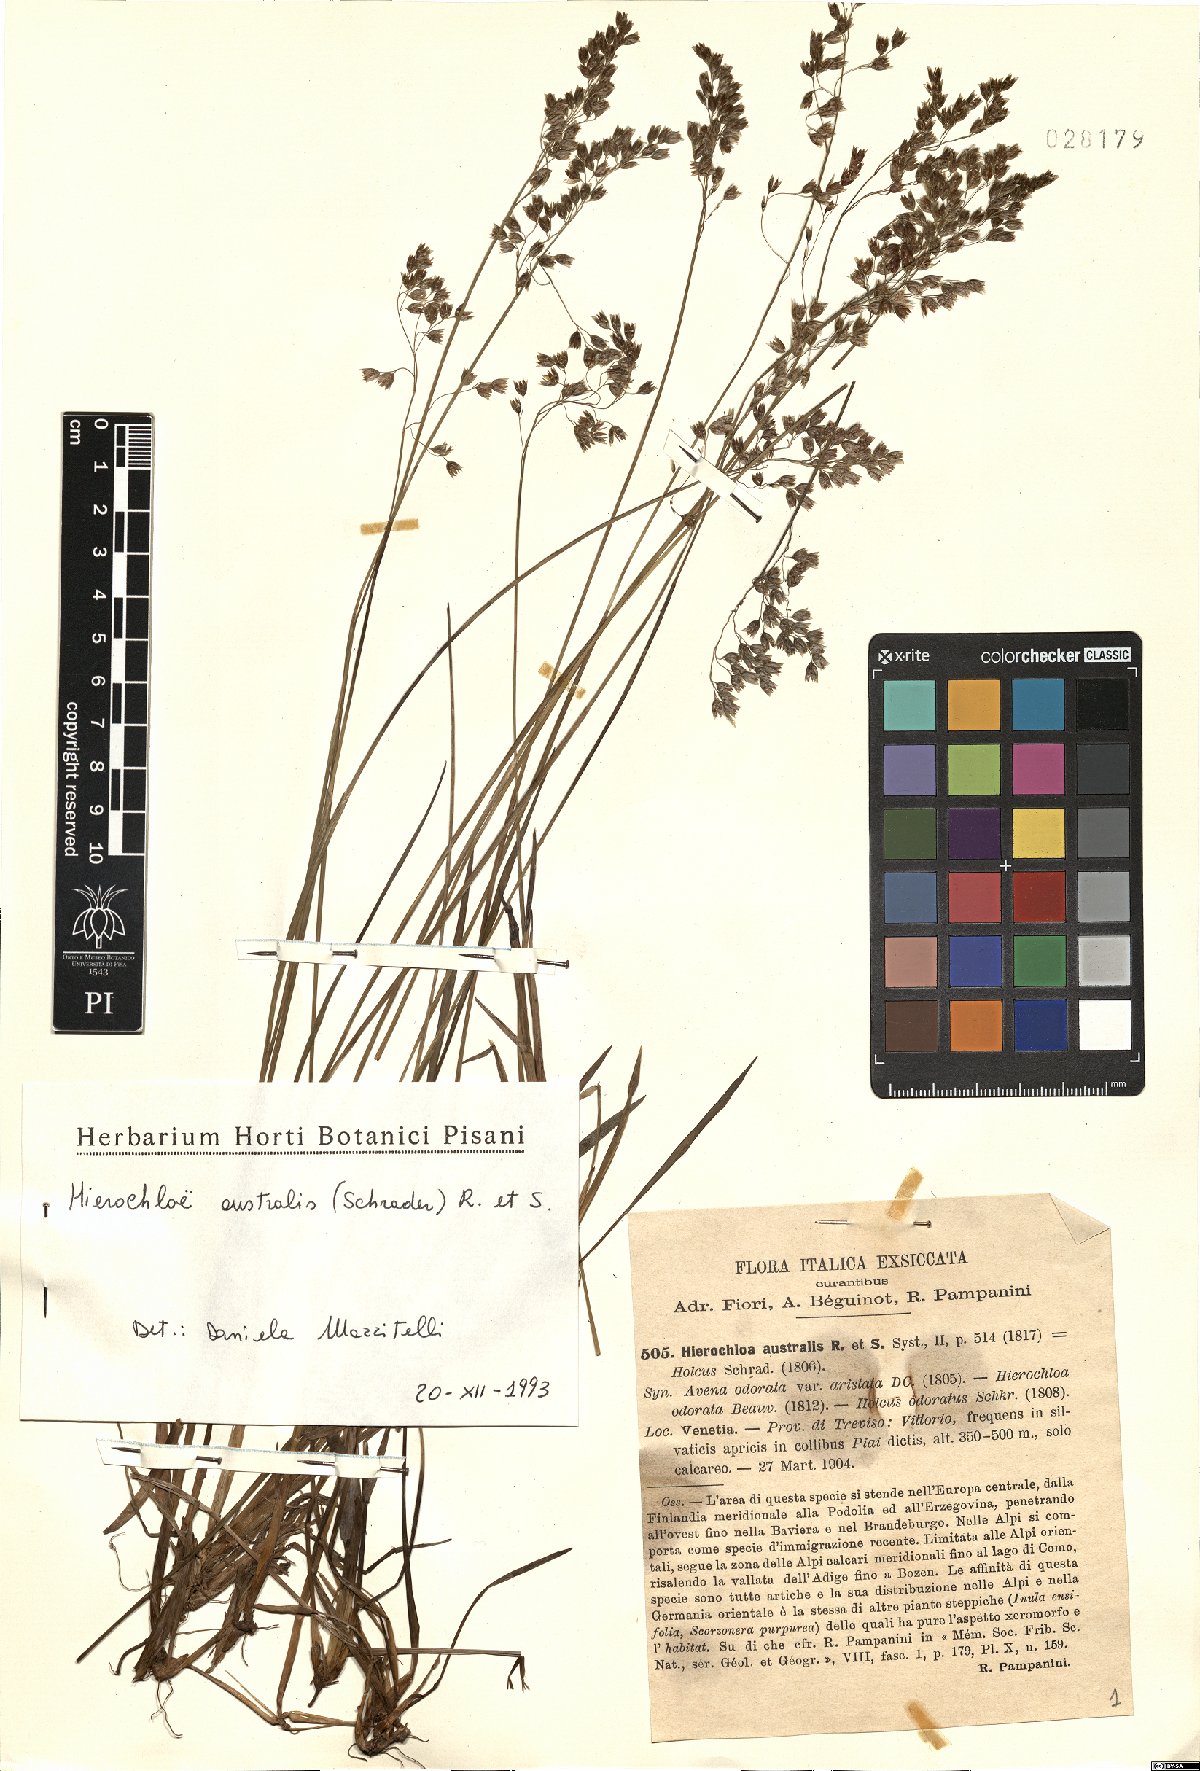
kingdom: Plantae
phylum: Tracheophyta
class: Liliopsida
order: Poales
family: Poaceae
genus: Anthoxanthum
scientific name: Anthoxanthum australe
